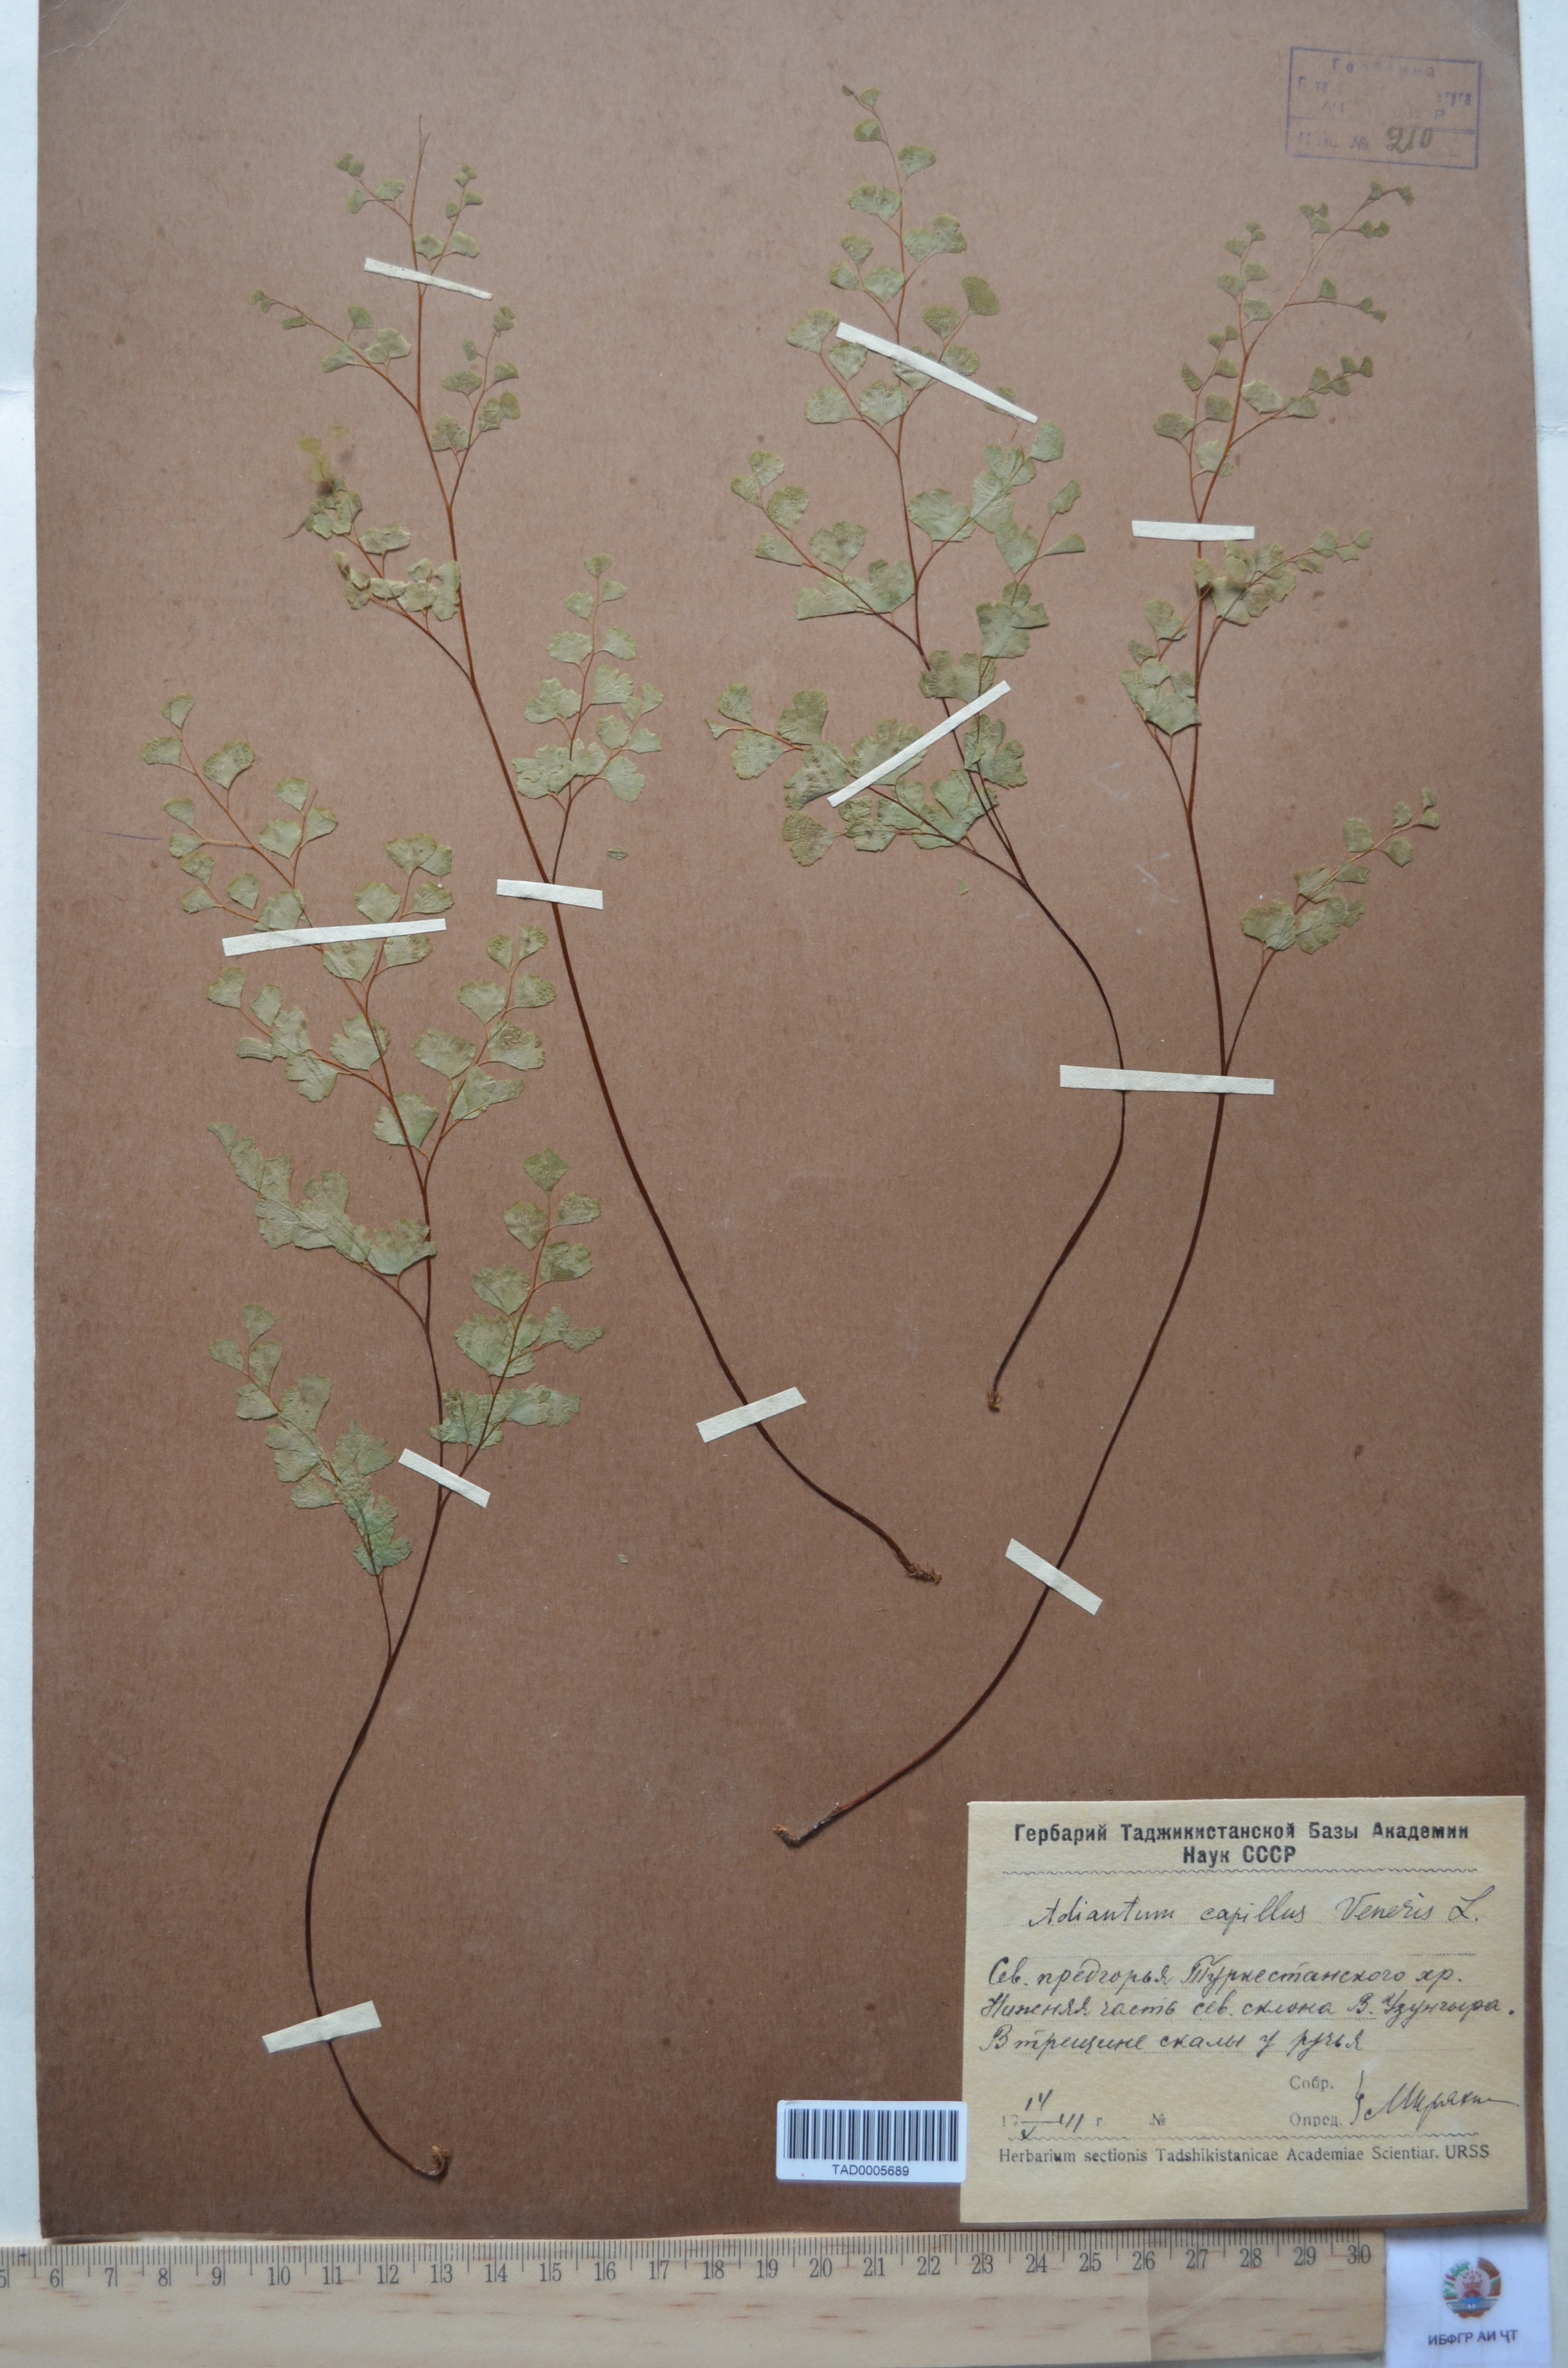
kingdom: Plantae
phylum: Tracheophyta
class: Polypodiopsida
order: Polypodiales
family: Pteridaceae
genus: Adiantum
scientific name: Adiantum capillus-veneris
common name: Maidenhair fern
